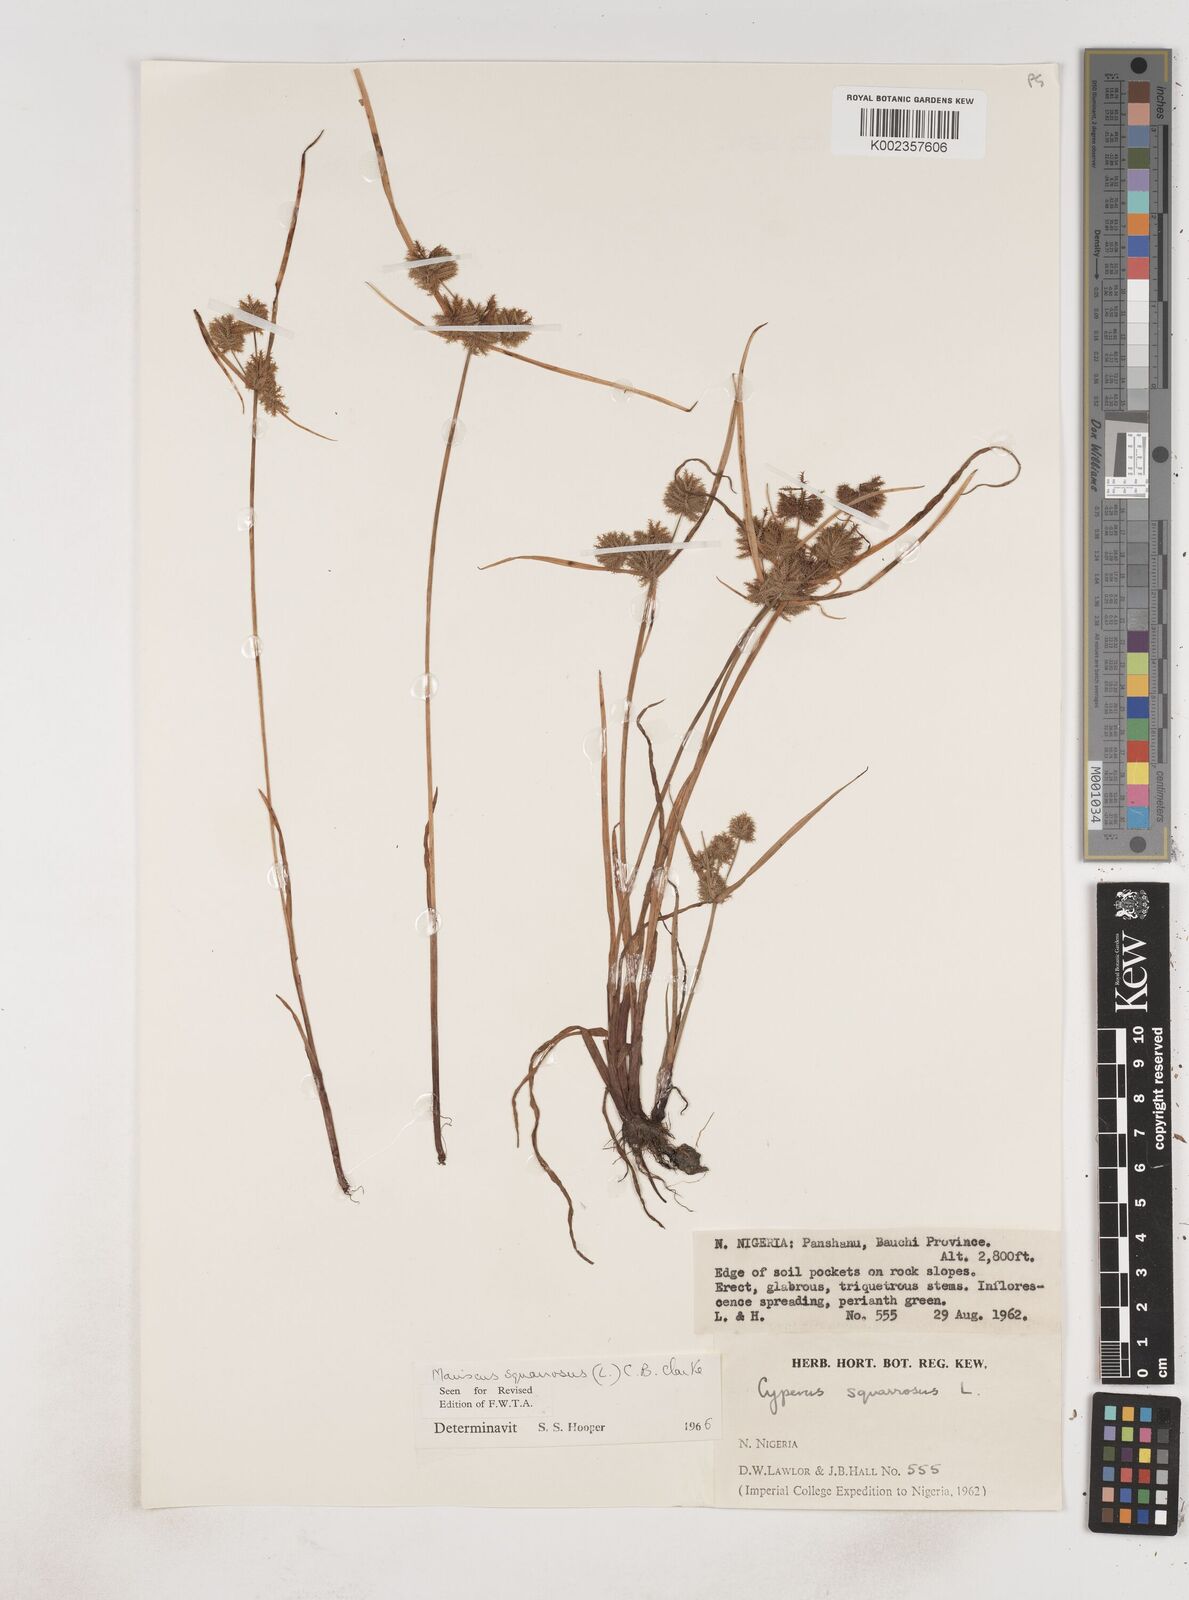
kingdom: Plantae
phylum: Tracheophyta
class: Liliopsida
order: Poales
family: Cyperaceae
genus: Cyperus
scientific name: Cyperus squarrosus
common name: Awned cyperus
